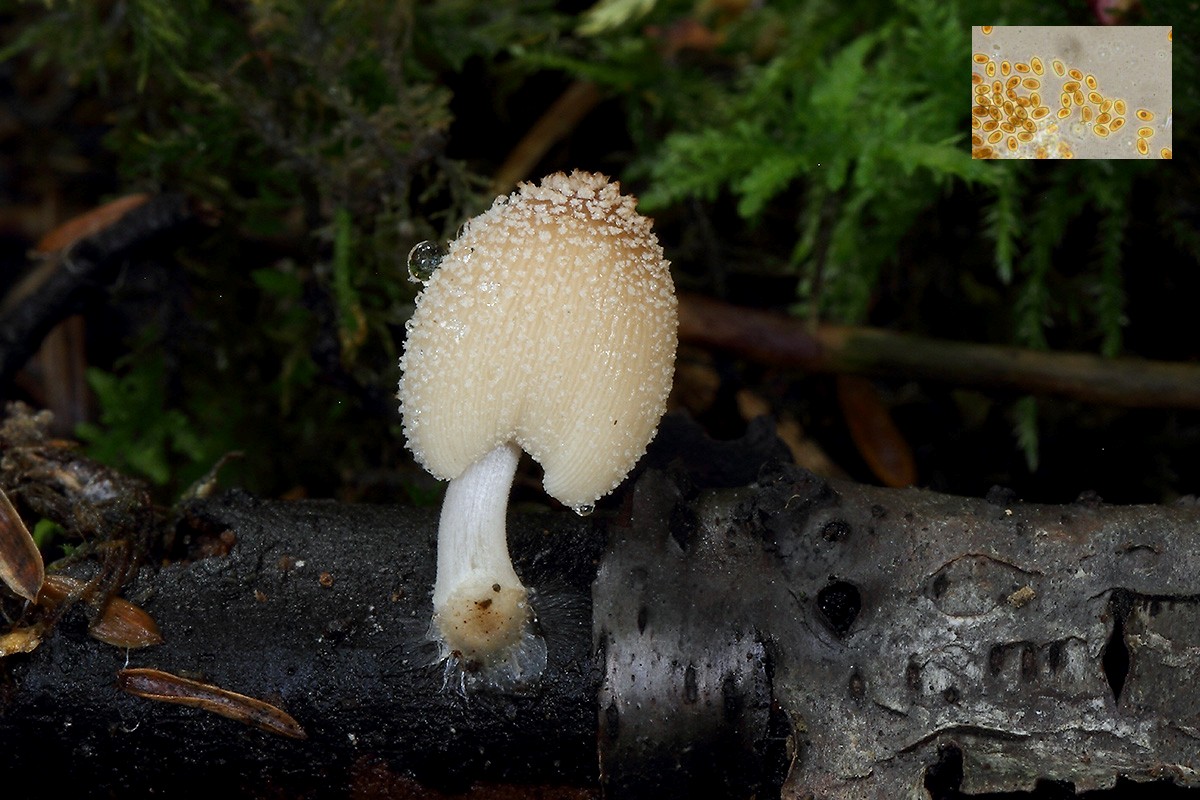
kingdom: Fungi
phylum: Basidiomycota
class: Agaricomycetes
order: Agaricales
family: Psathyrellaceae
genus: Coprinellus
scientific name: Coprinellus domesticus
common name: hus-blækhat
